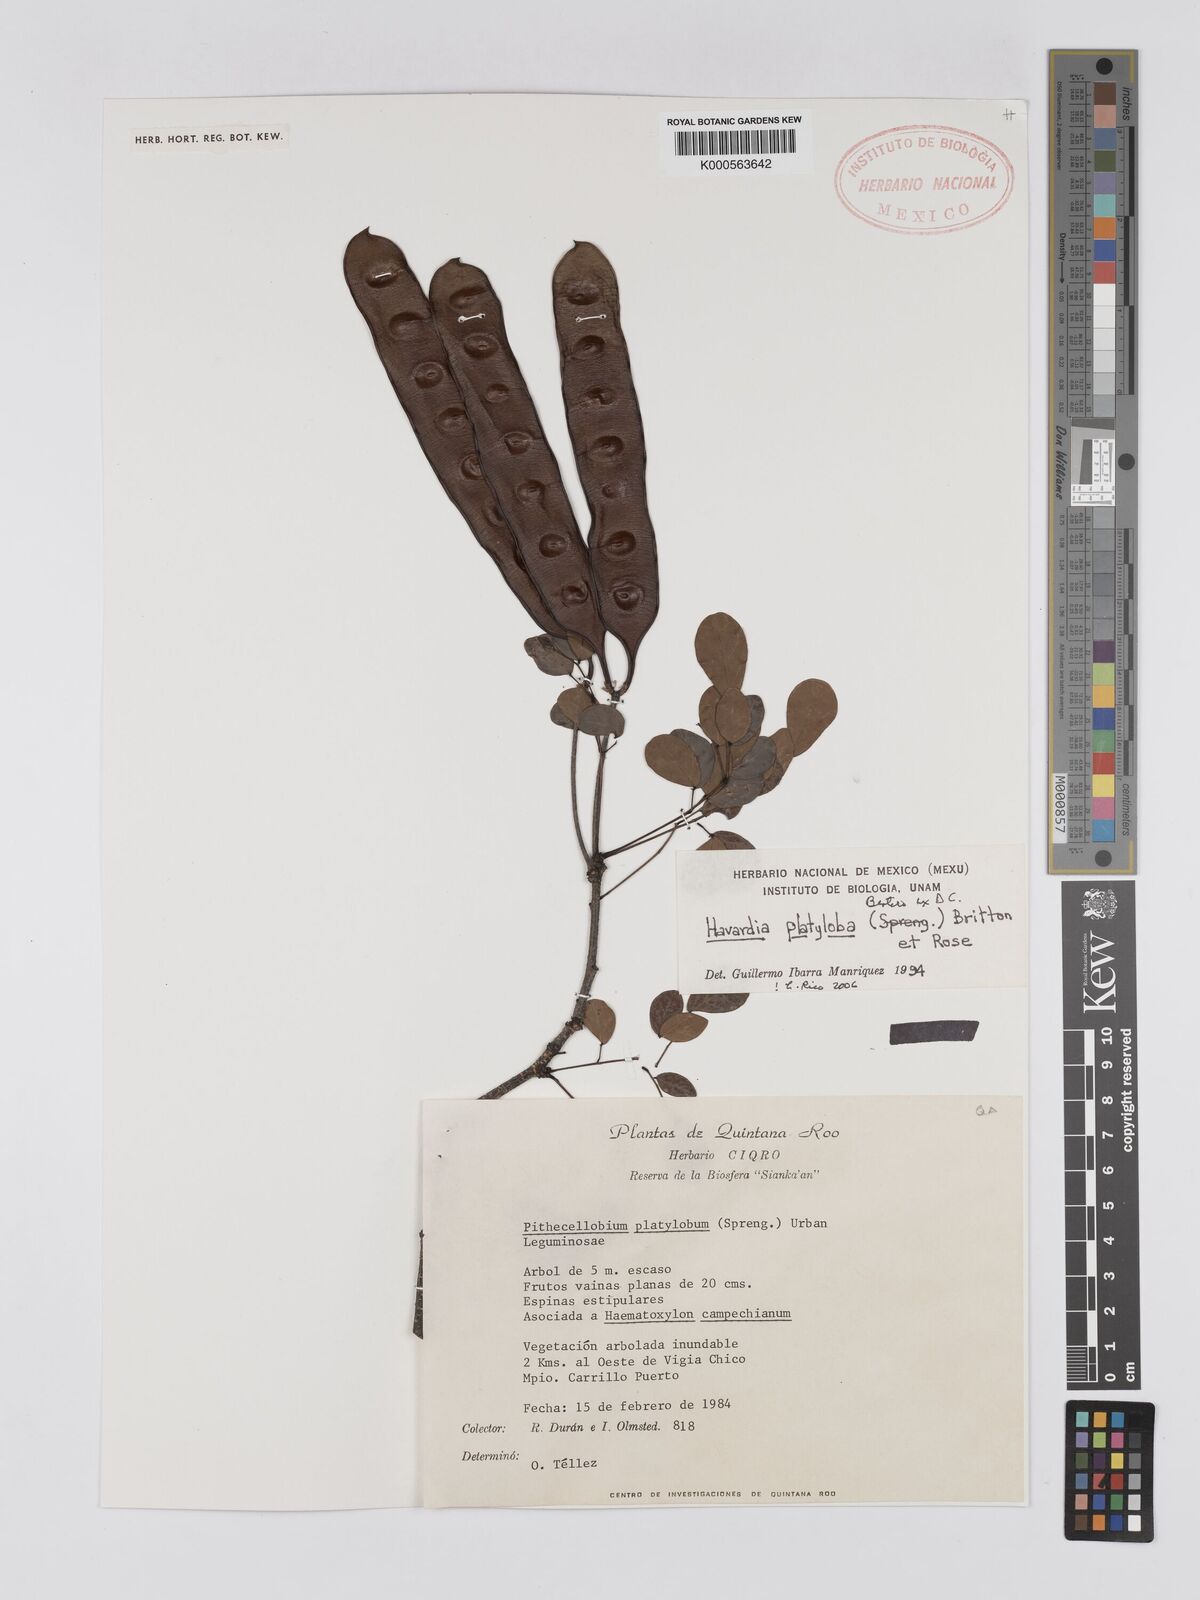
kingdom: Plantae
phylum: Tracheophyta
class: Magnoliopsida
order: Fabales
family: Fabaceae
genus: Havardia
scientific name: Havardia platyloba
